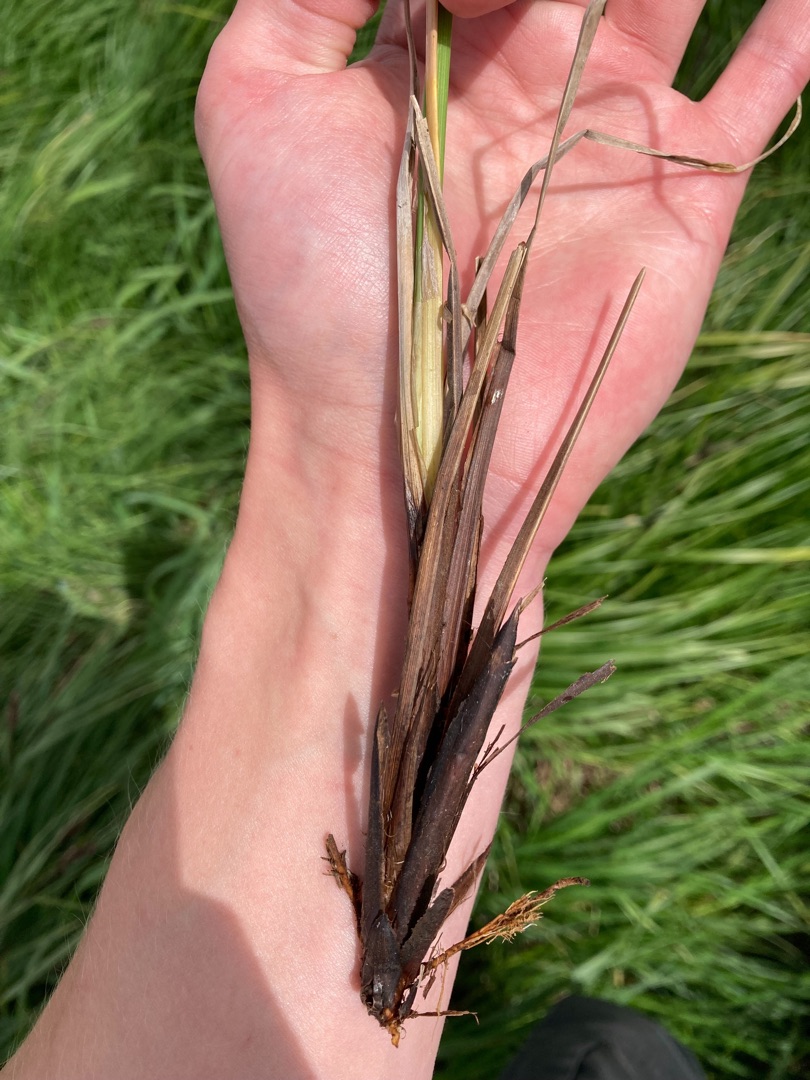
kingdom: Plantae
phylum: Tracheophyta
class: Liliopsida
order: Poales
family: Cyperaceae
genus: Carex
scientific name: Carex acuta
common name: Nikkende star
